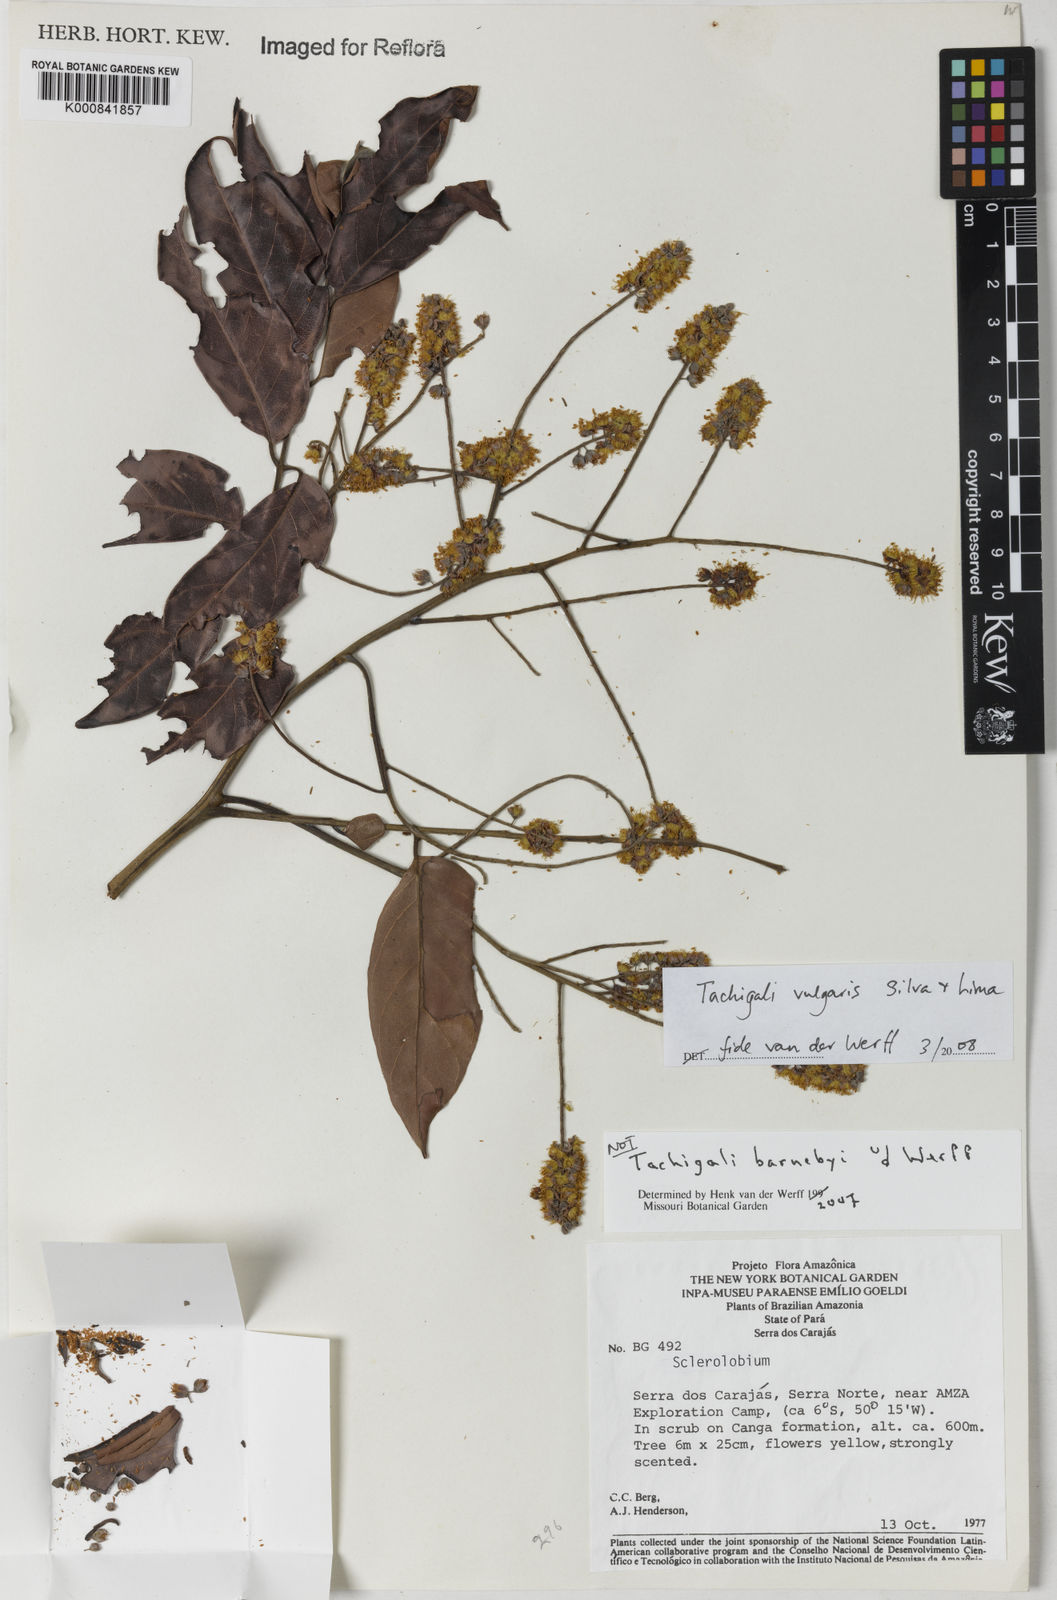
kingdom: Plantae
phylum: Tracheophyta
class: Magnoliopsida
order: Fabales
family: Fabaceae
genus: Tachigali
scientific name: Tachigali vulgaris
